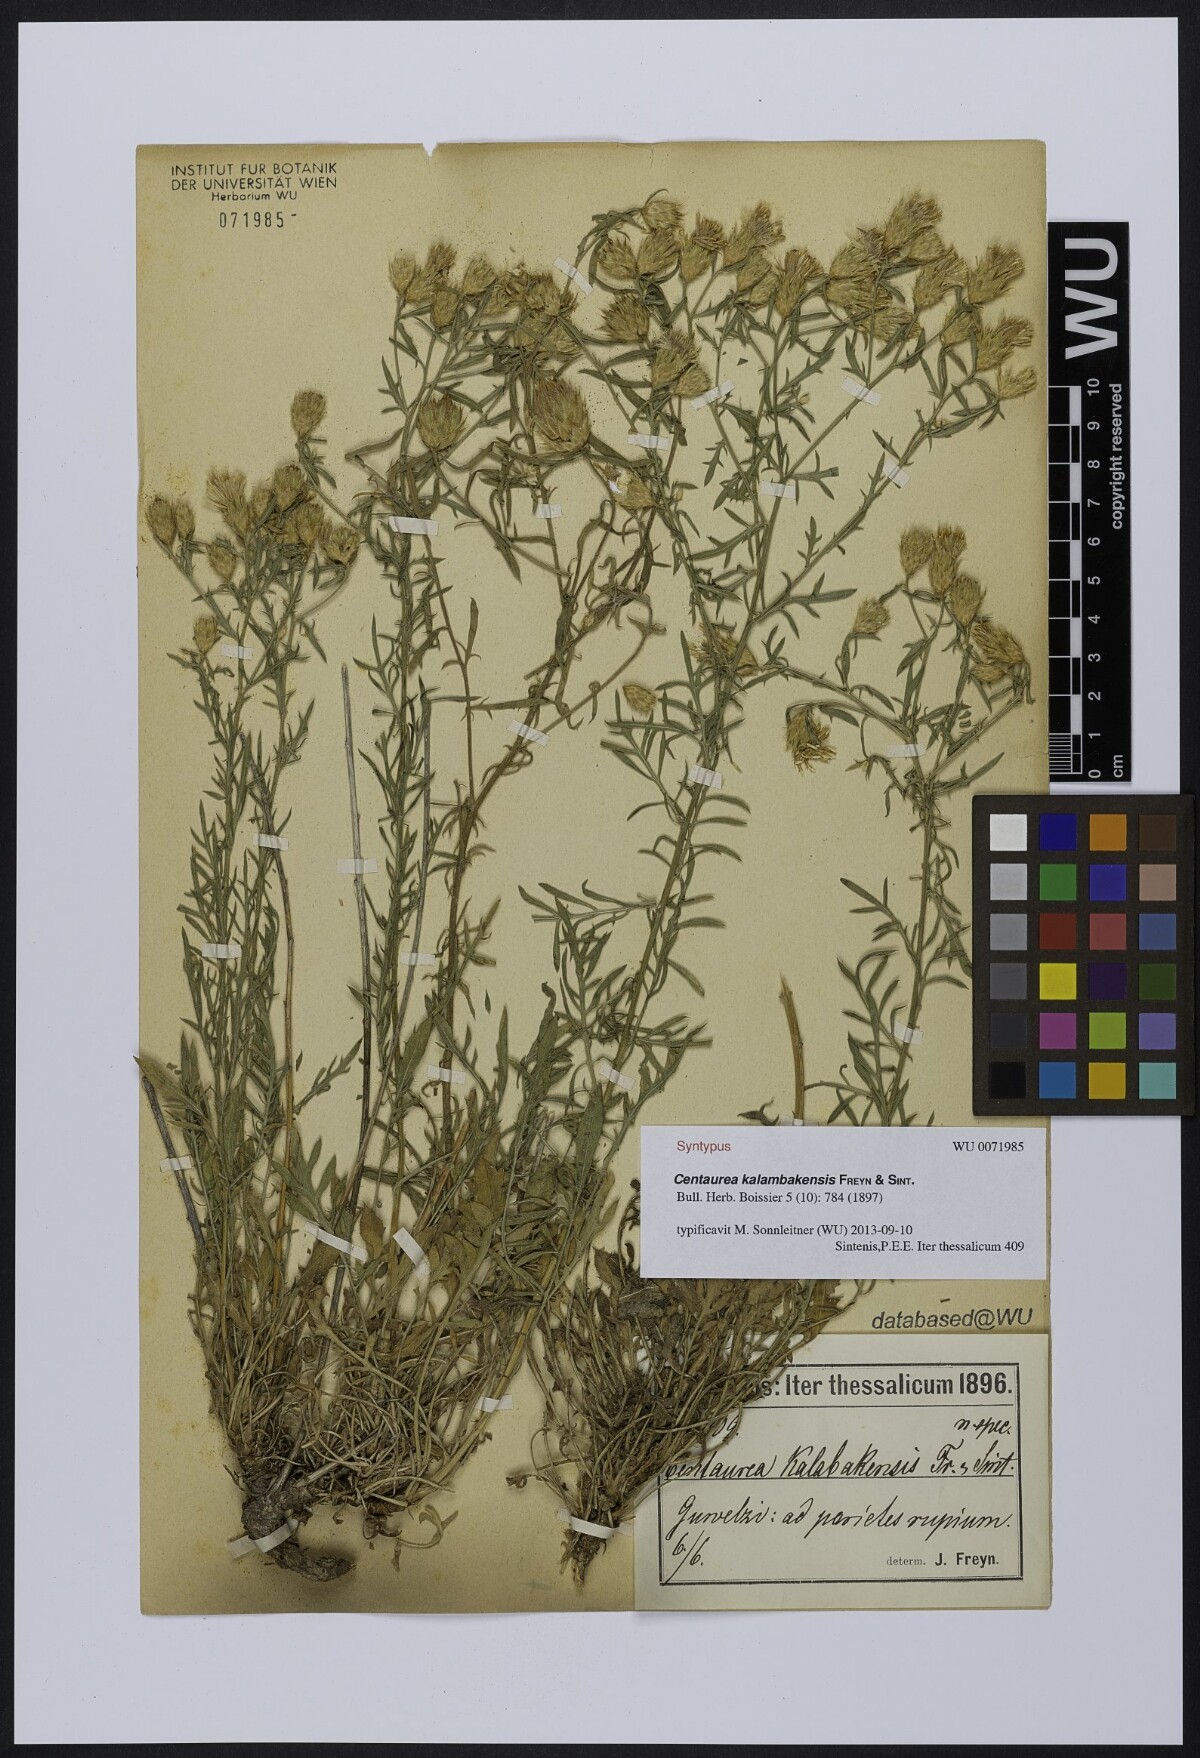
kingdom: Plantae
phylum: Tracheophyta
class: Magnoliopsida
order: Asterales
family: Asteraceae
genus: Centaurea
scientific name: Centaurea kalambakensis
